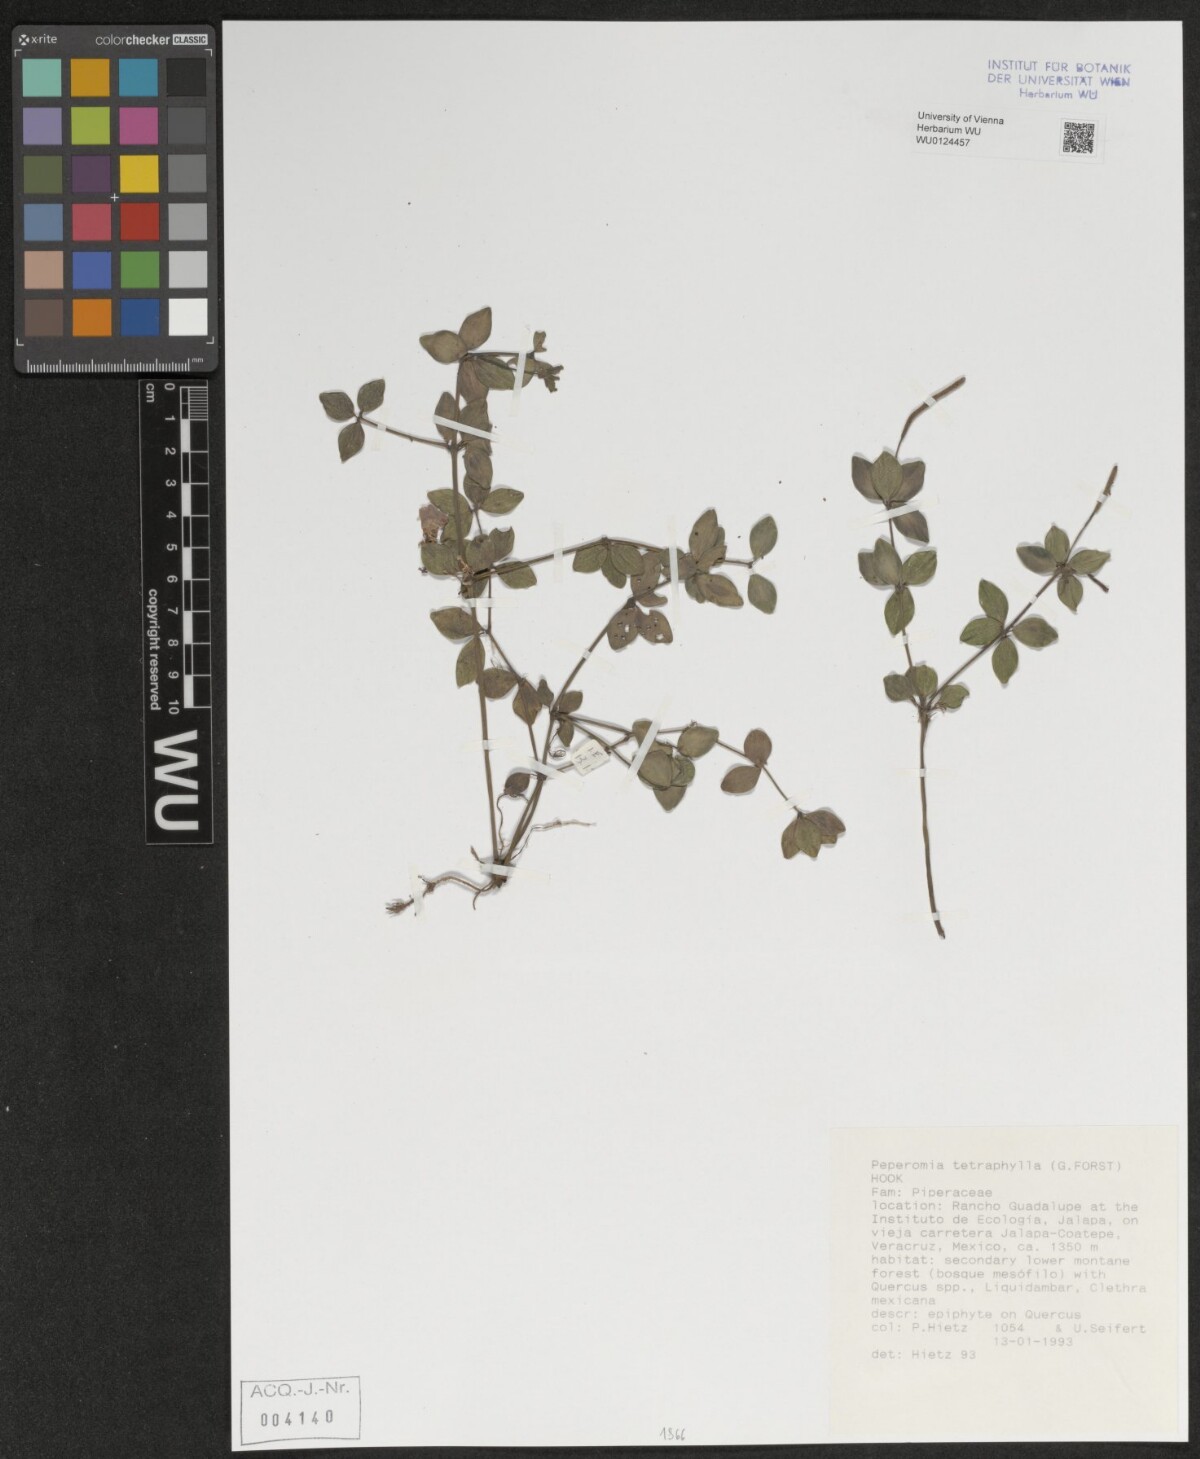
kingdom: Plantae
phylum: Tracheophyta
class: Magnoliopsida
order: Piperales
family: Piperaceae
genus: Peperomia
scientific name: Peperomia tetraphylla
